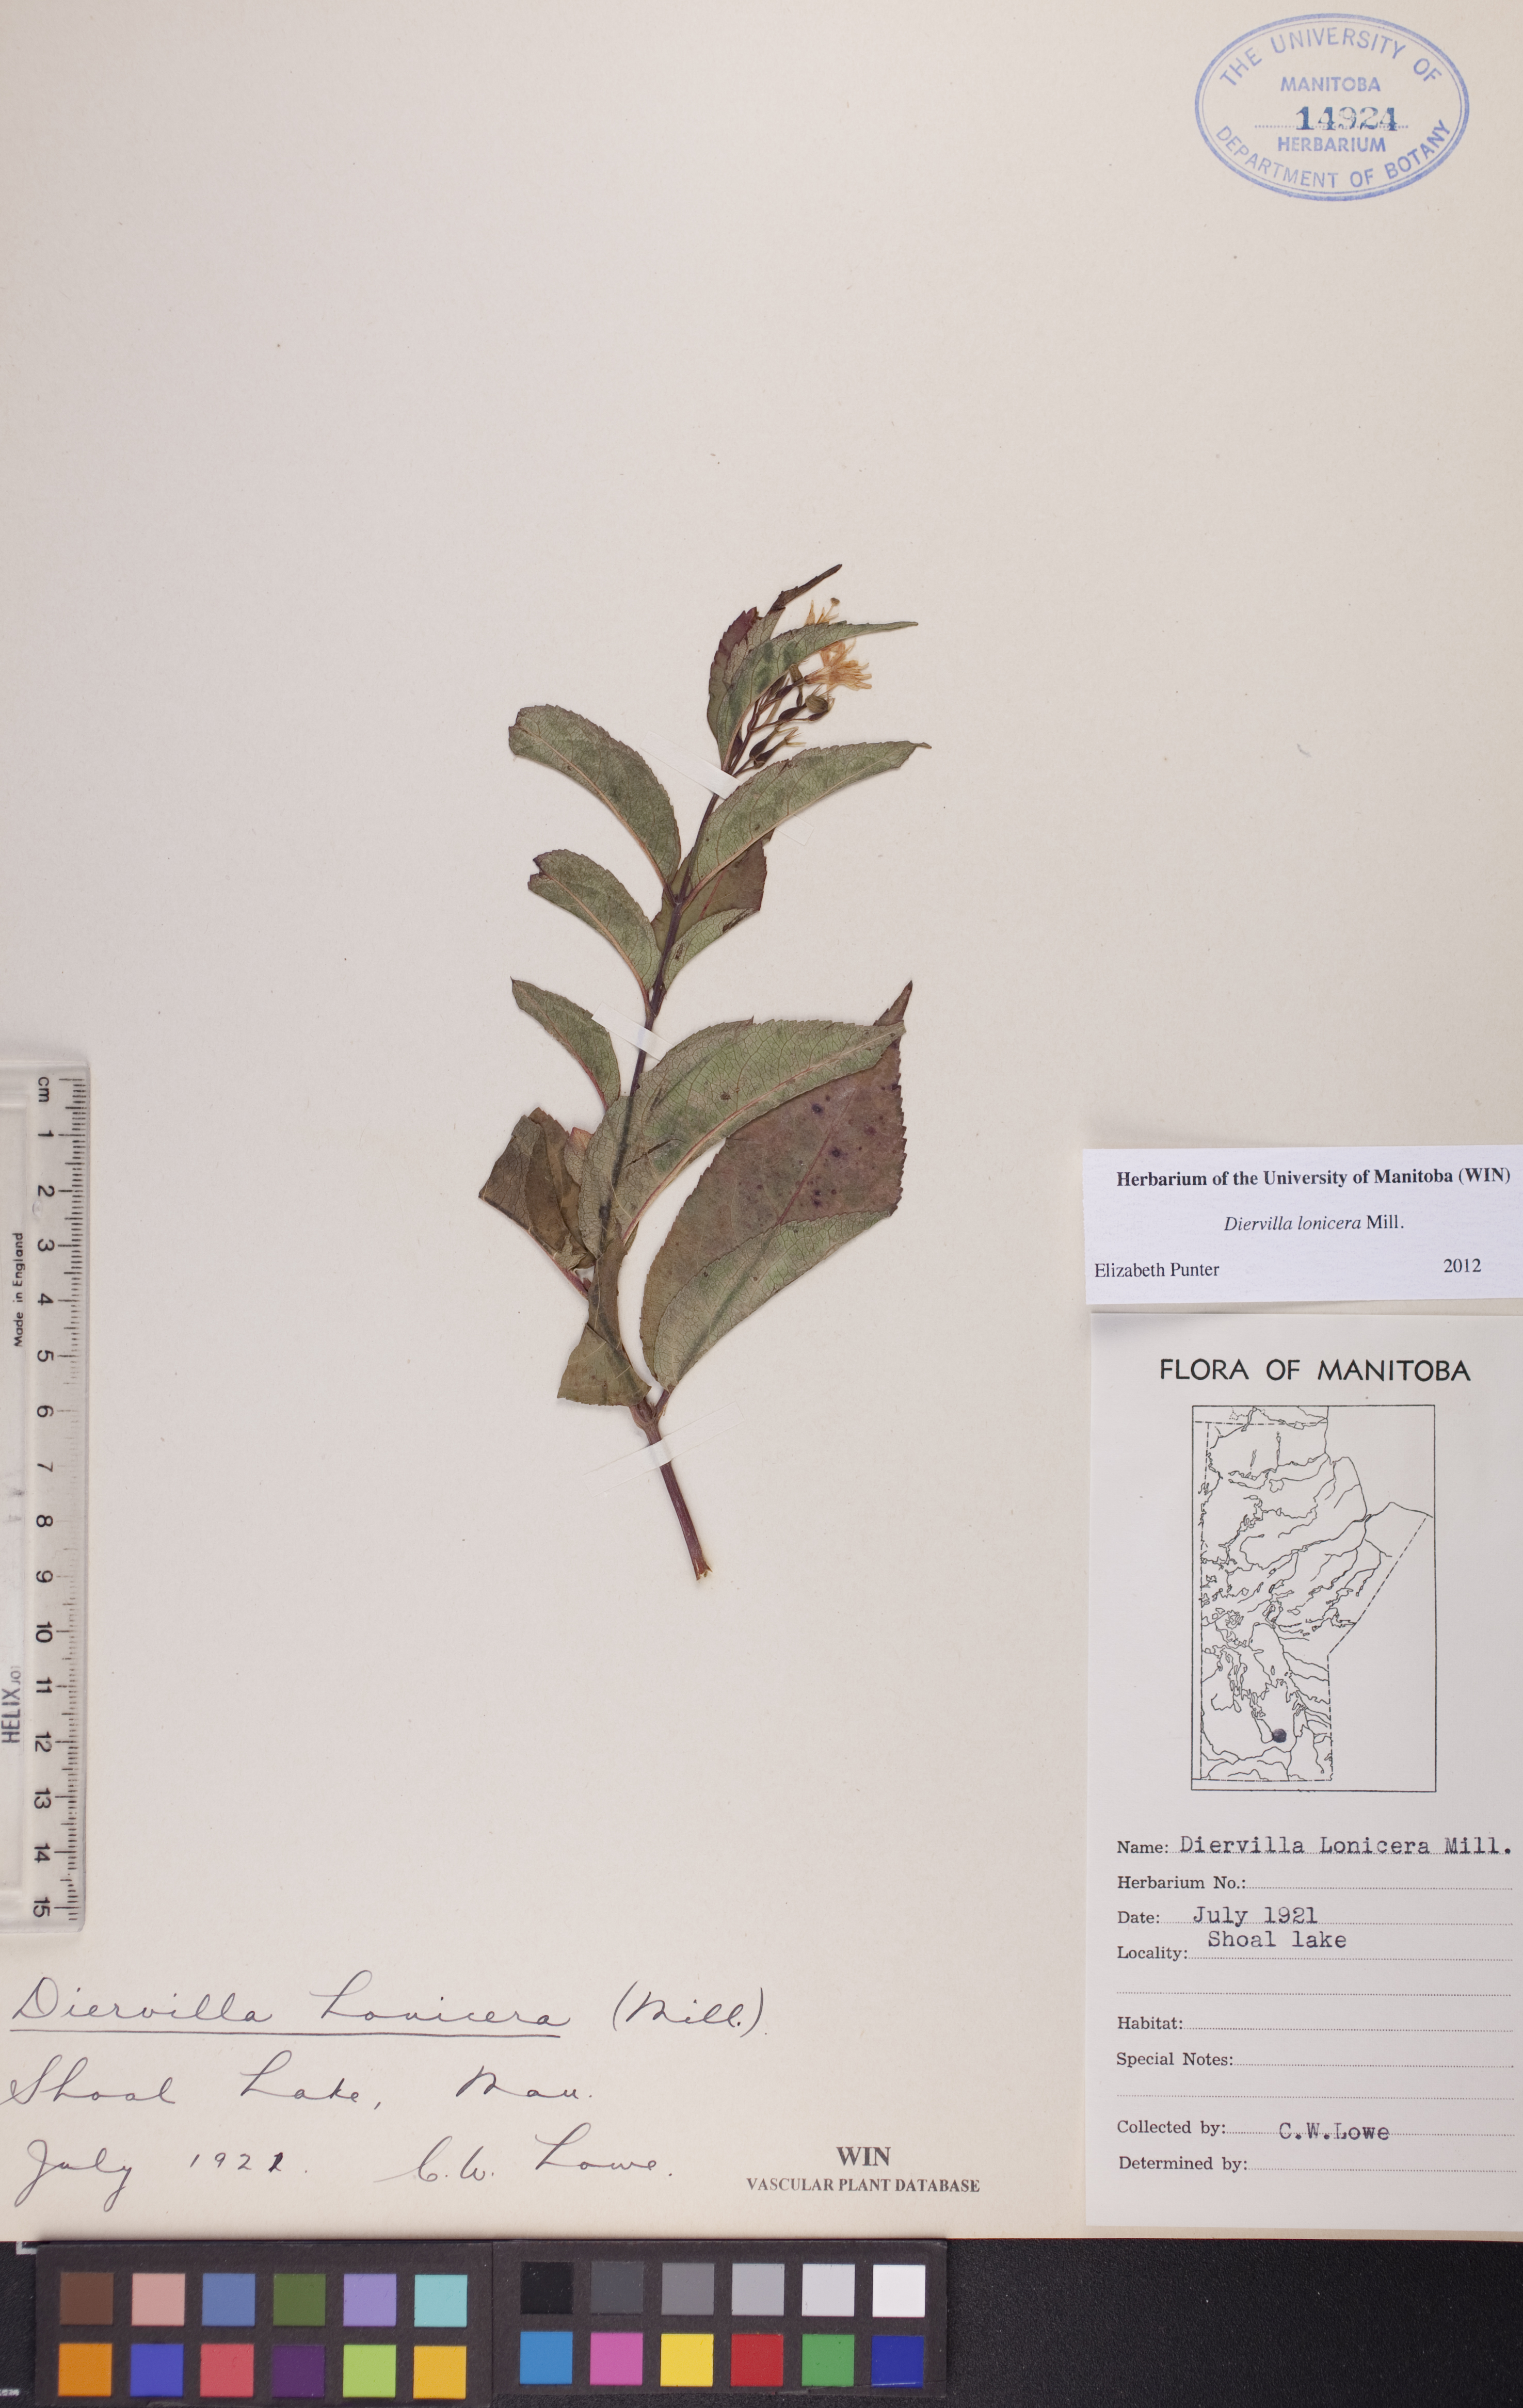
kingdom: Plantae
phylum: Tracheophyta
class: Magnoliopsida
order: Dipsacales
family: Caprifoliaceae
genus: Diervilla
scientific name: Diervilla lonicera
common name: Bush-honeysuckle
